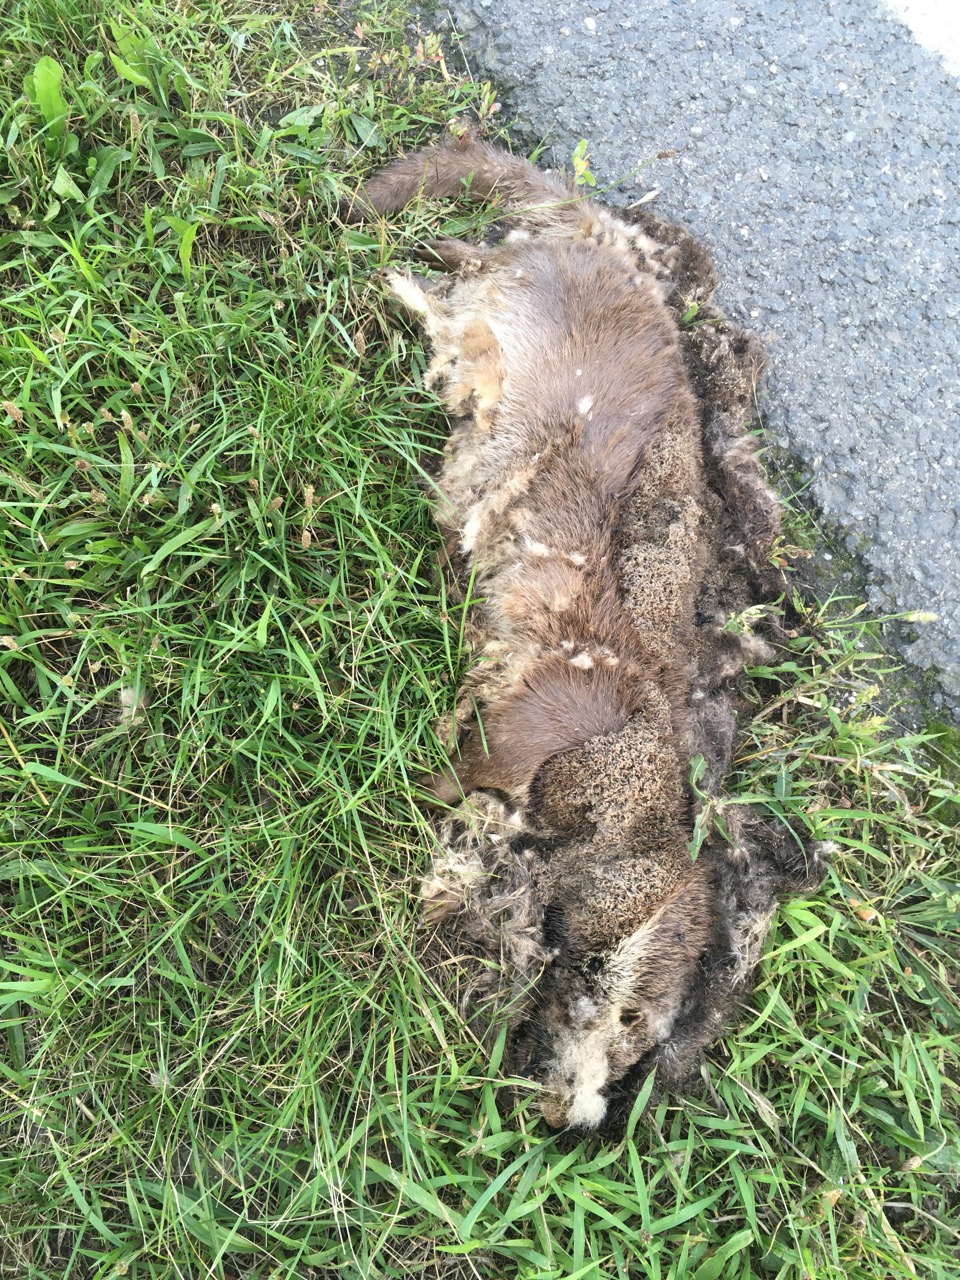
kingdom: Animalia
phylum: Chordata
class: Mammalia
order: Carnivora
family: Mustelidae
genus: Lutra
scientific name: Lutra lutra
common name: European otter
